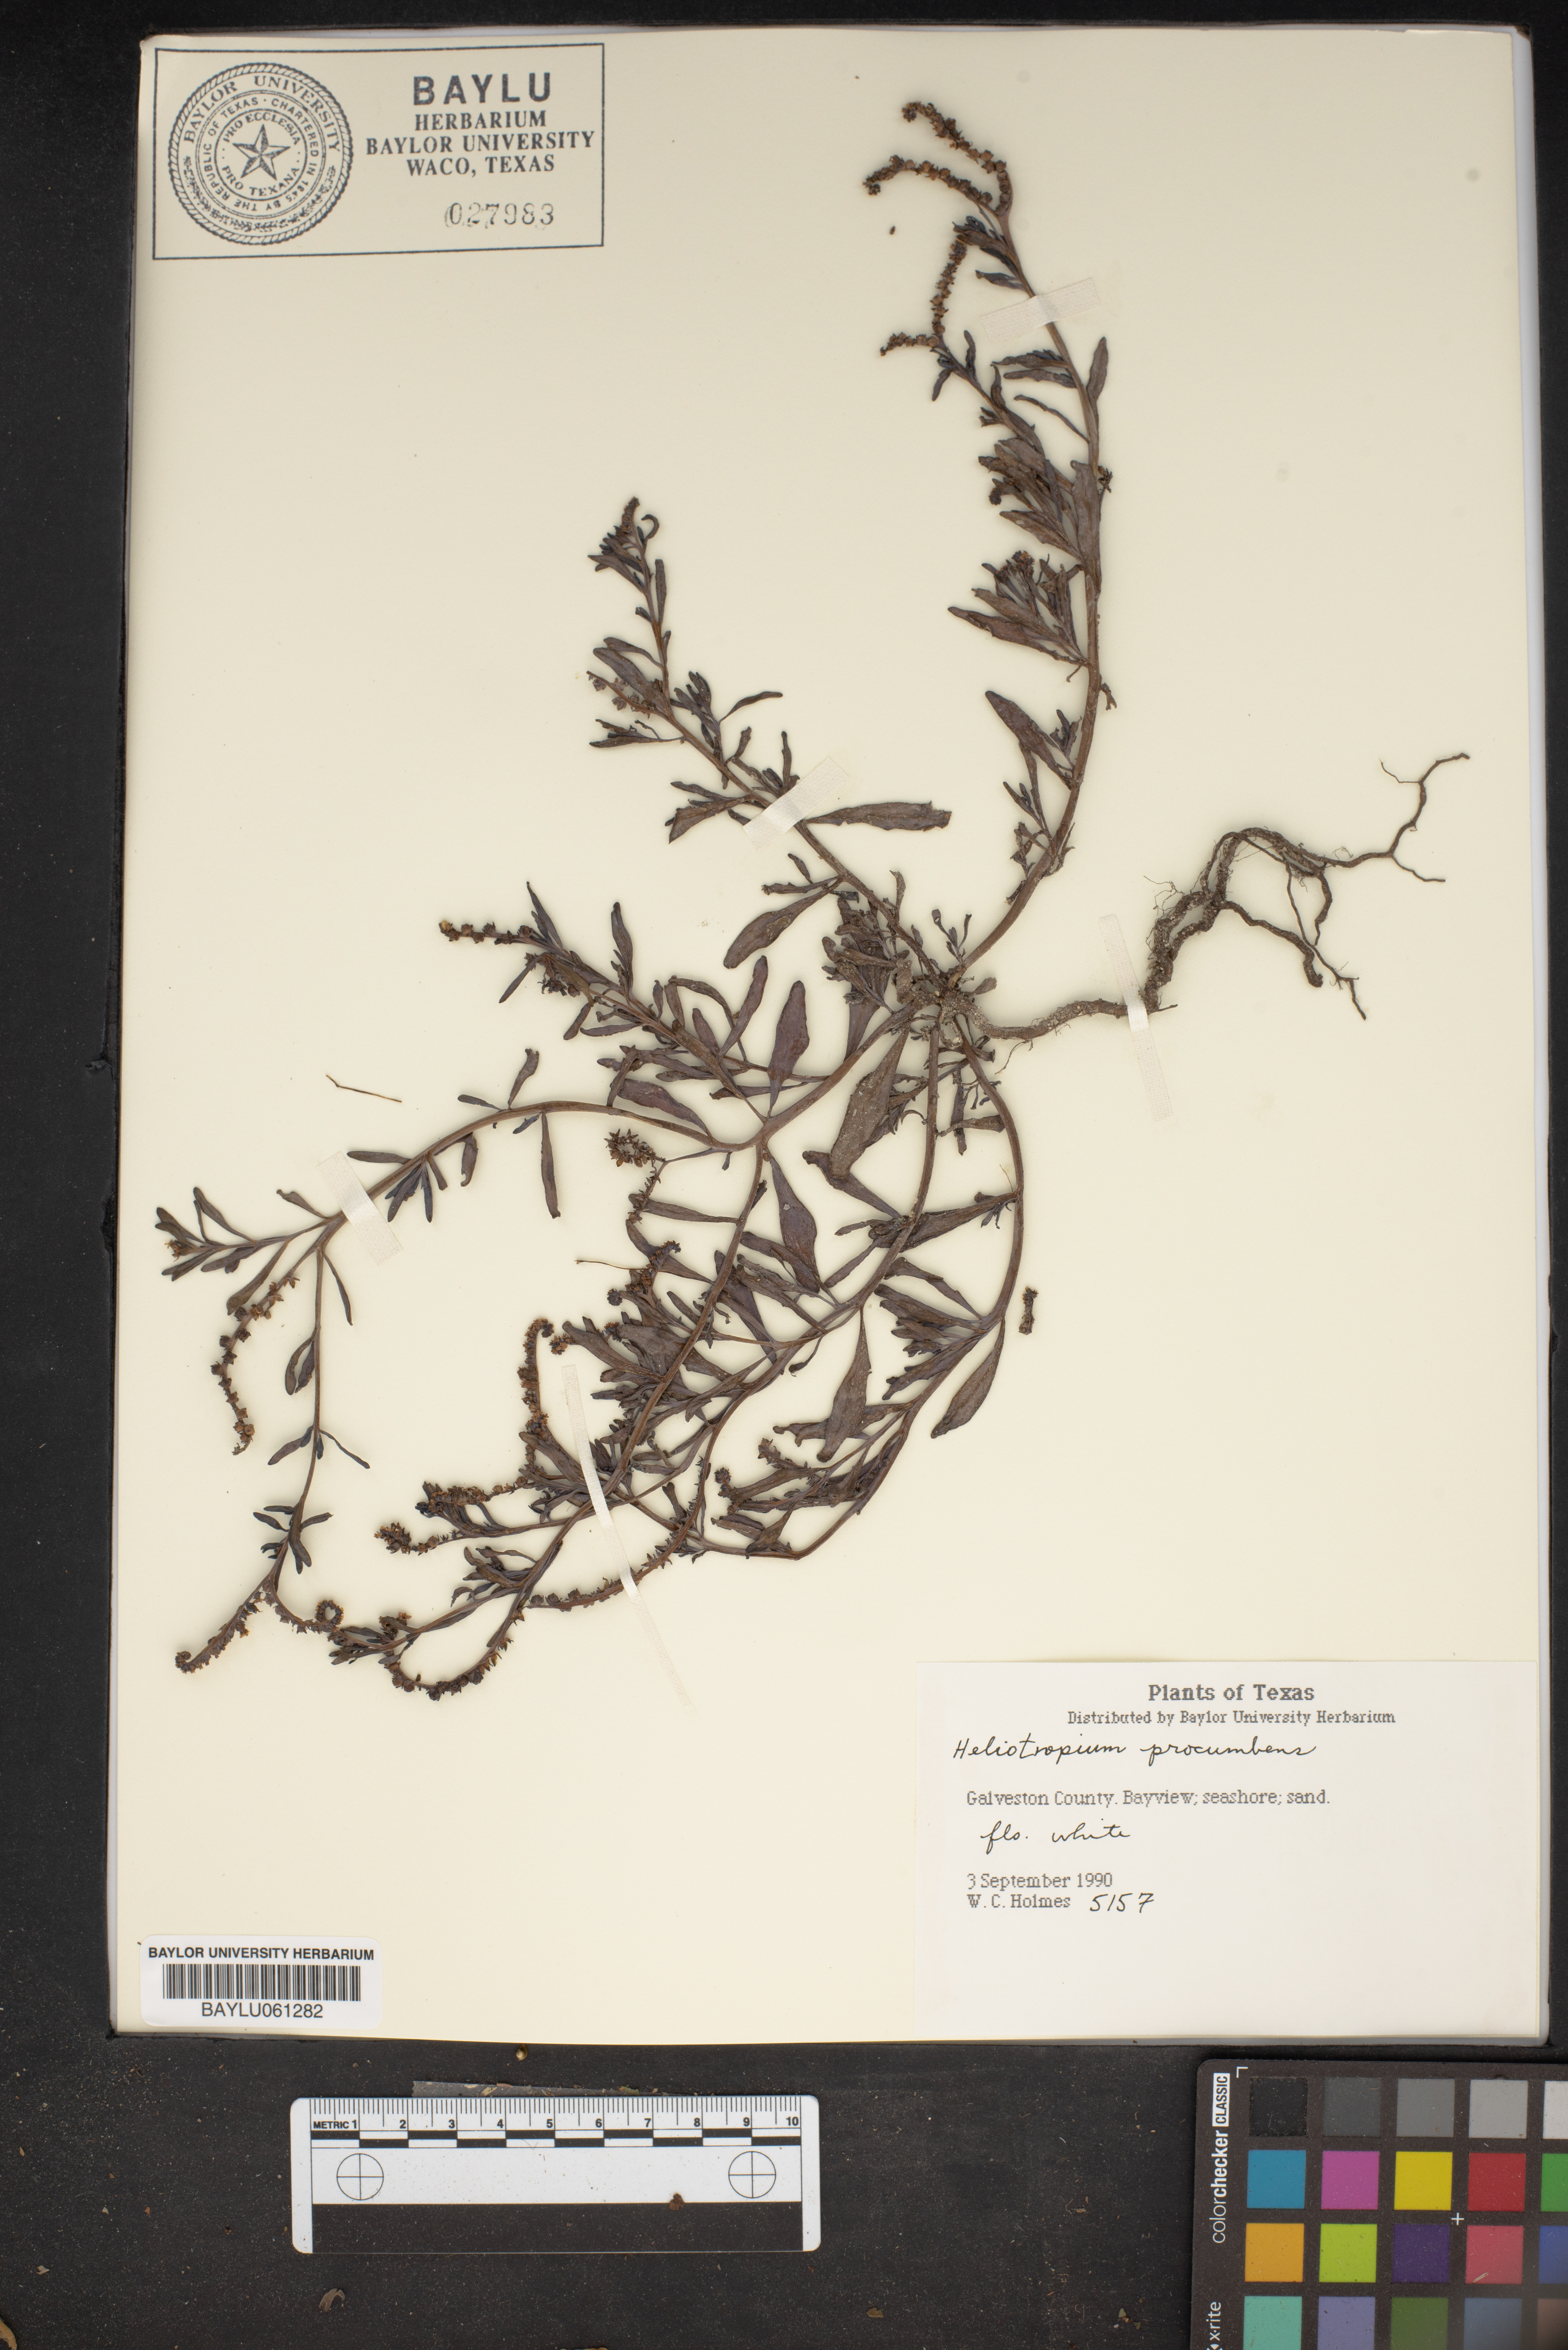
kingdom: Plantae
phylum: Tracheophyta
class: Magnoliopsida
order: Boraginales
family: Heliotropiaceae
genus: Euploca
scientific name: Euploca procumbens
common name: Fourspike heliotrope
